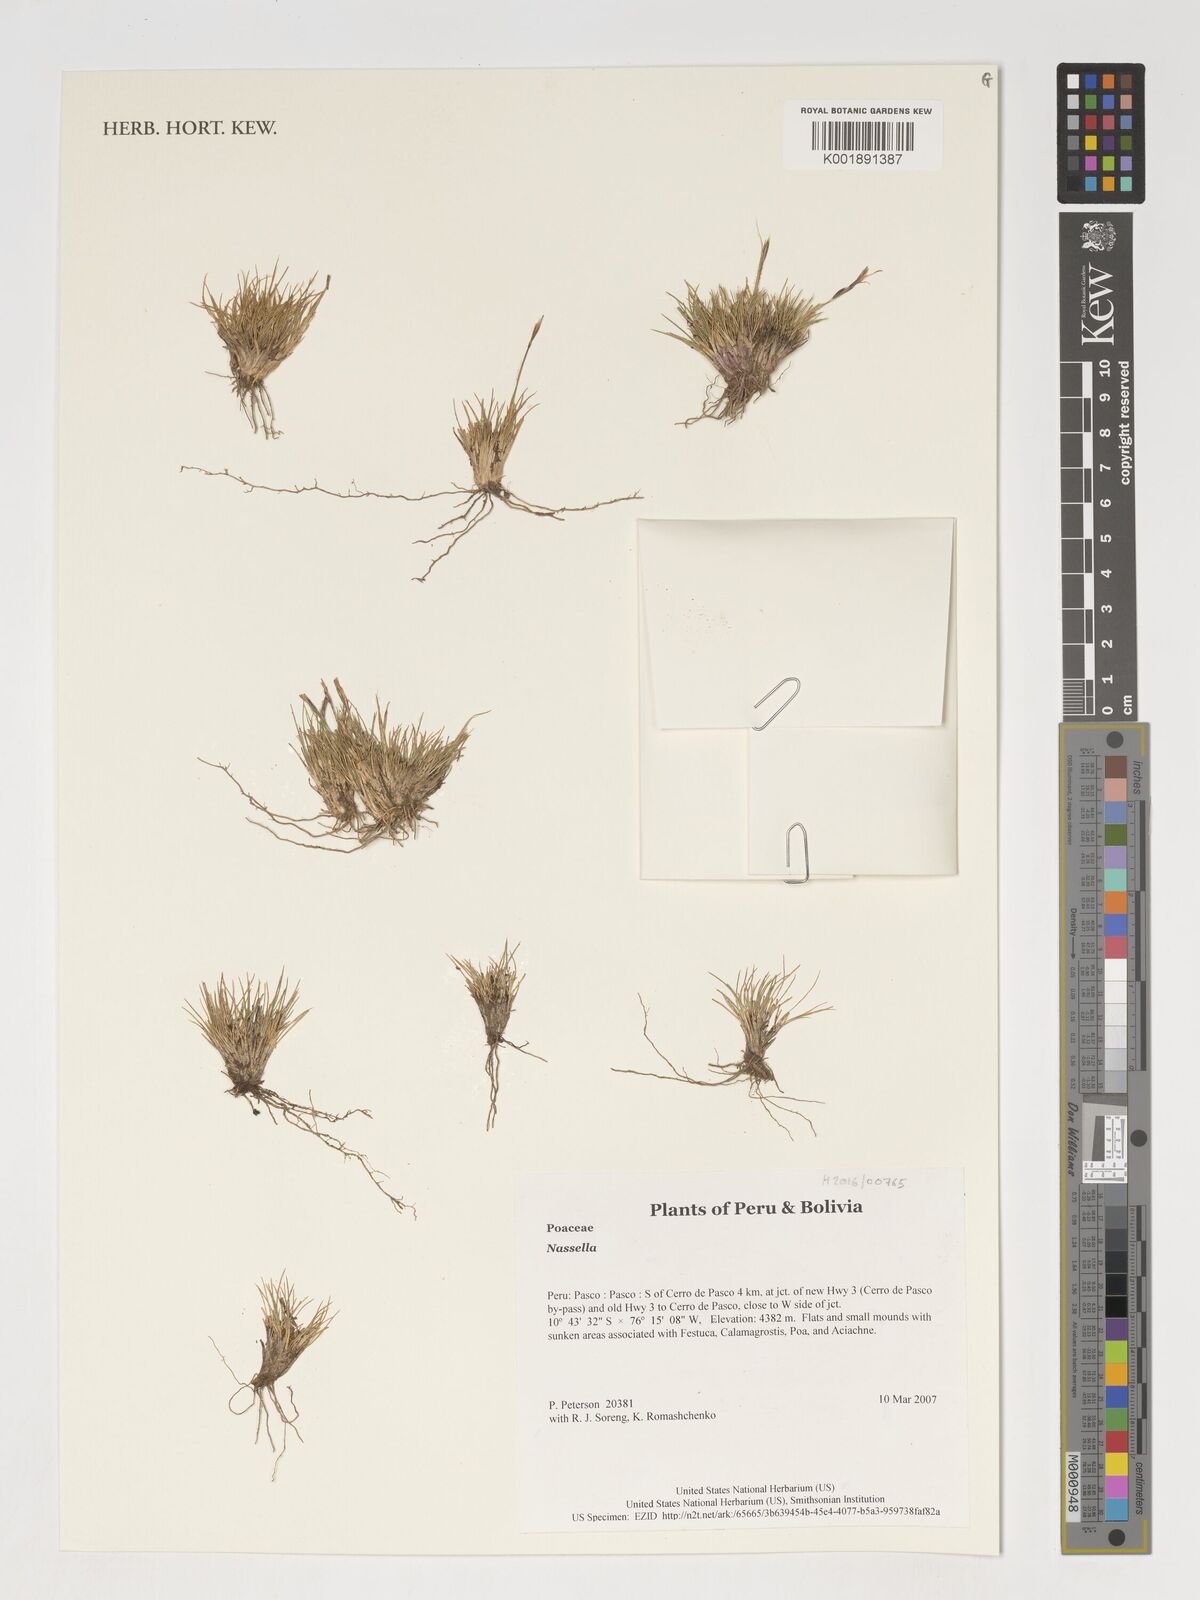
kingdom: Plantae
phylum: Tracheophyta
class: Liliopsida
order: Poales
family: Poaceae
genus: Nassella
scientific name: Nassella
